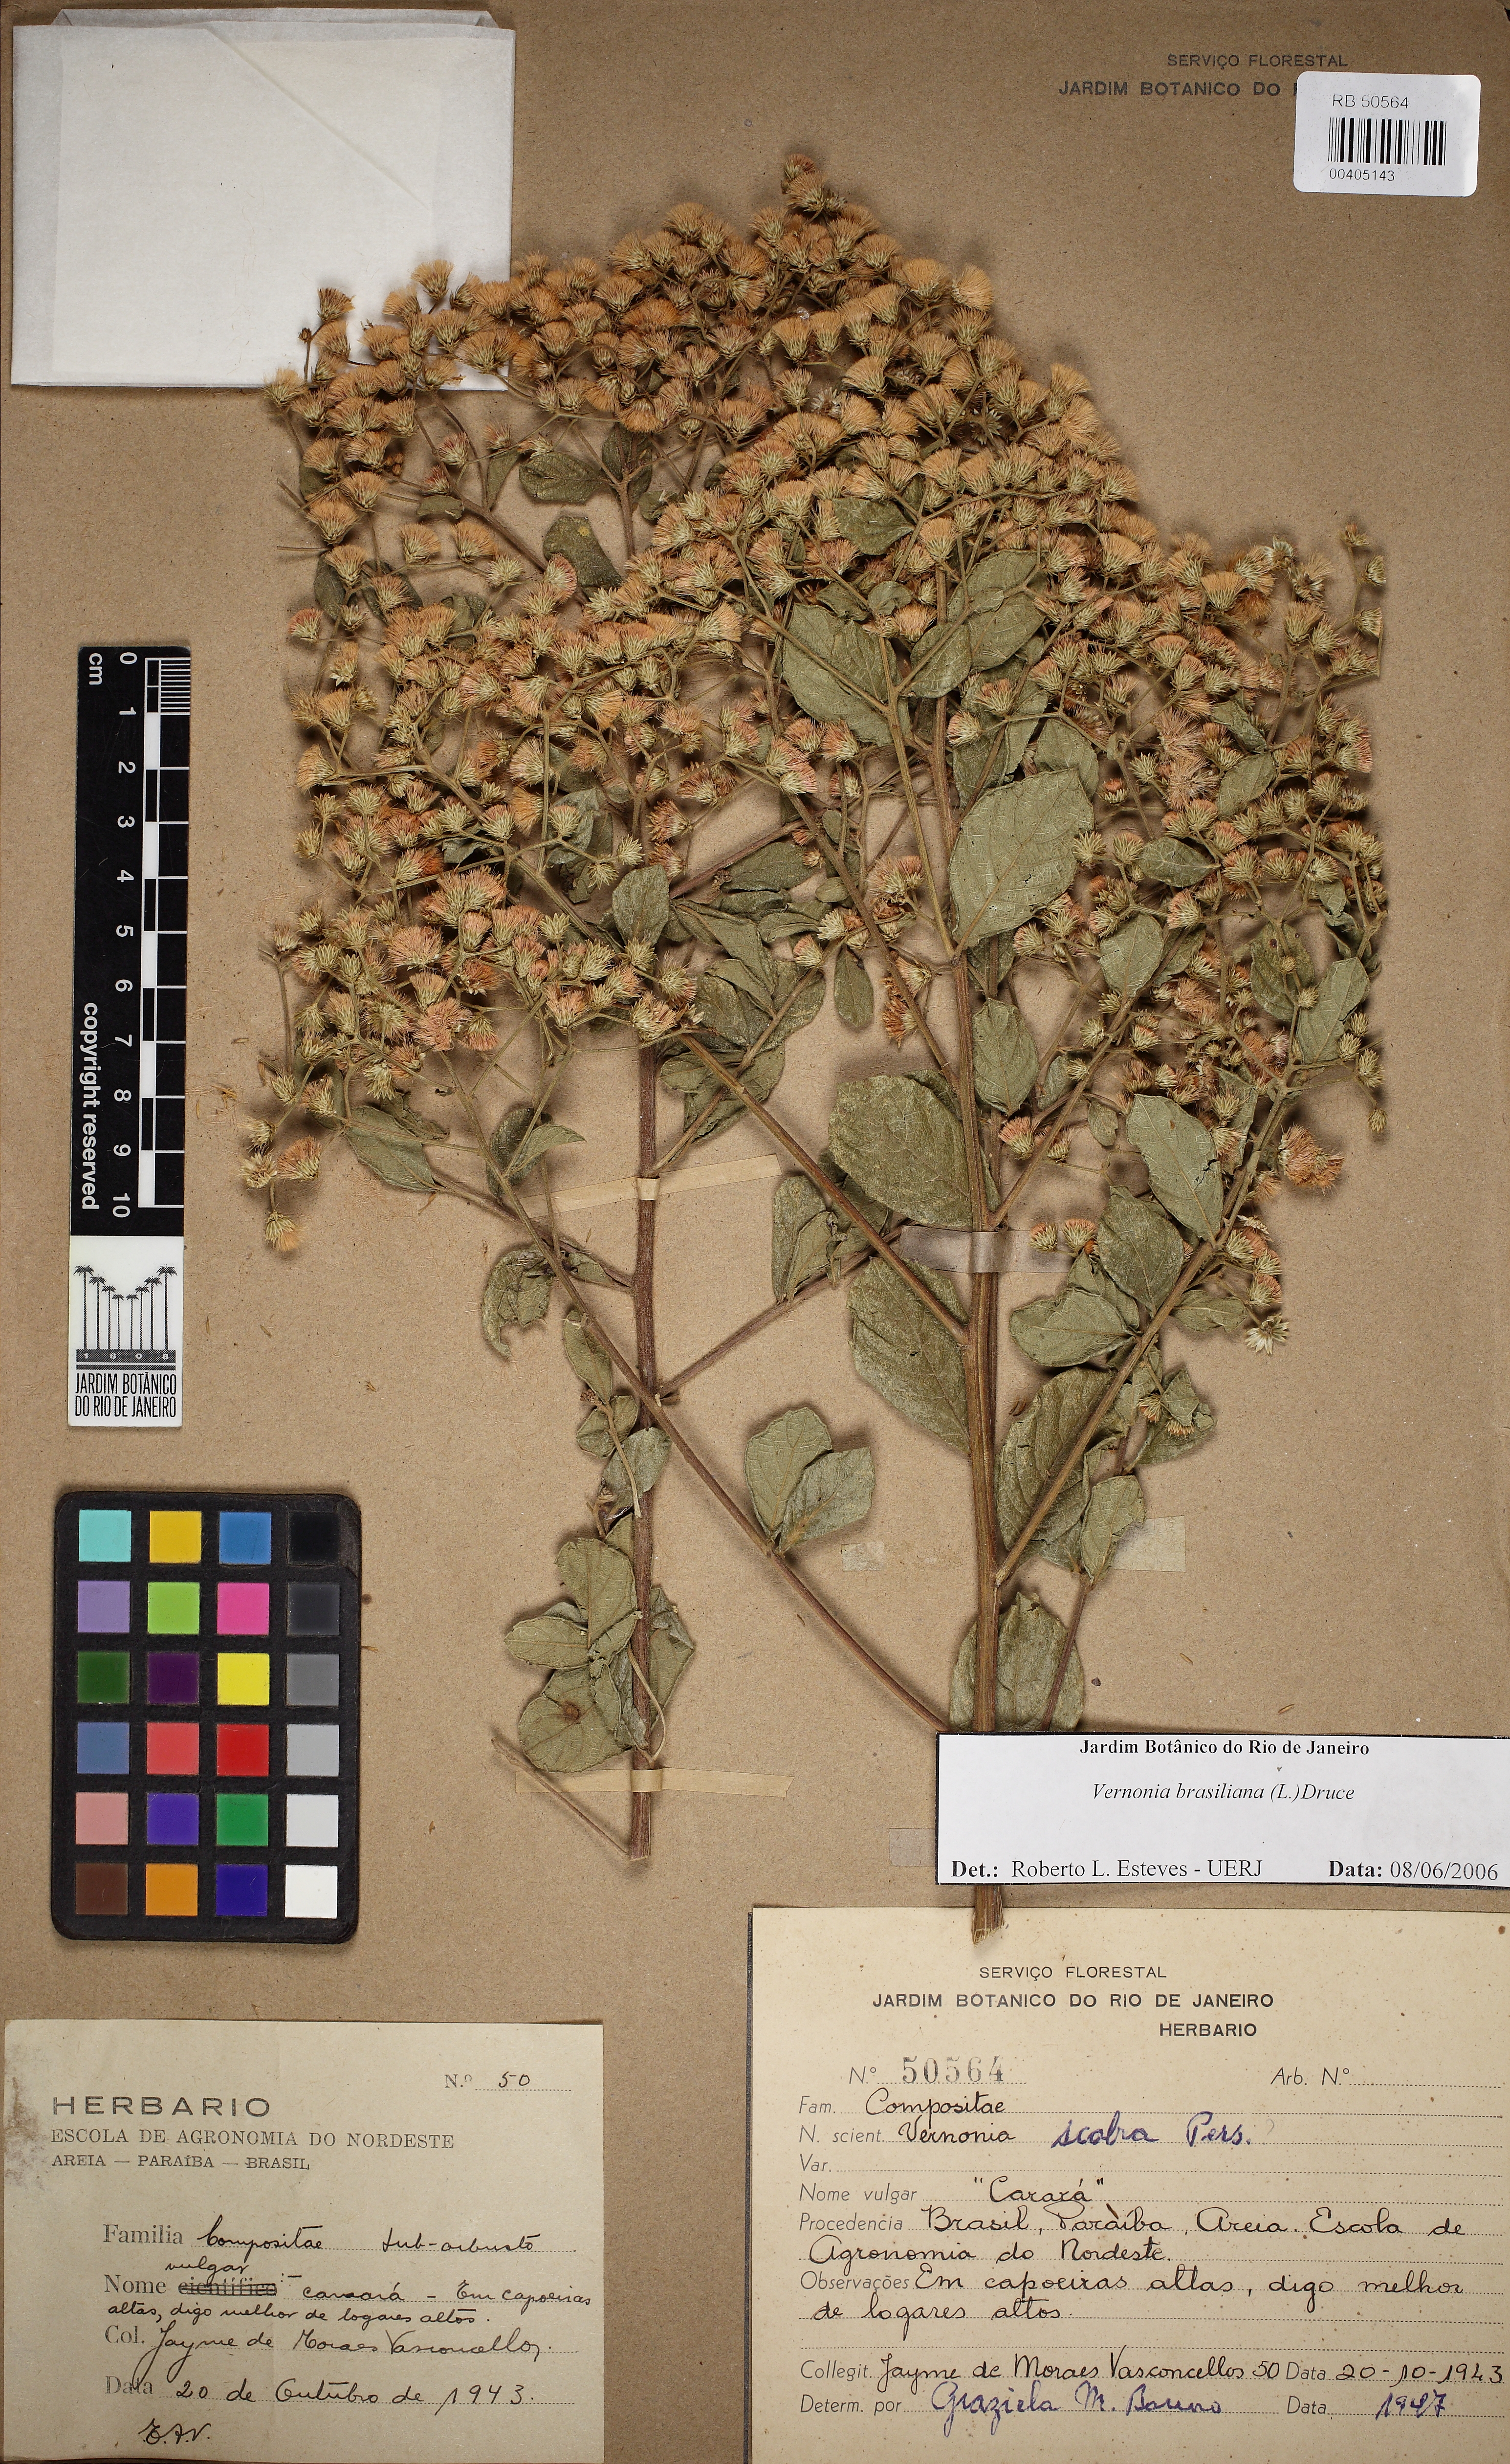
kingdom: Plantae
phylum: Tracheophyta
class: Magnoliopsida
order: Asterales
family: Asteraceae
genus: Vernonanthura
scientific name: Vernonanthura
